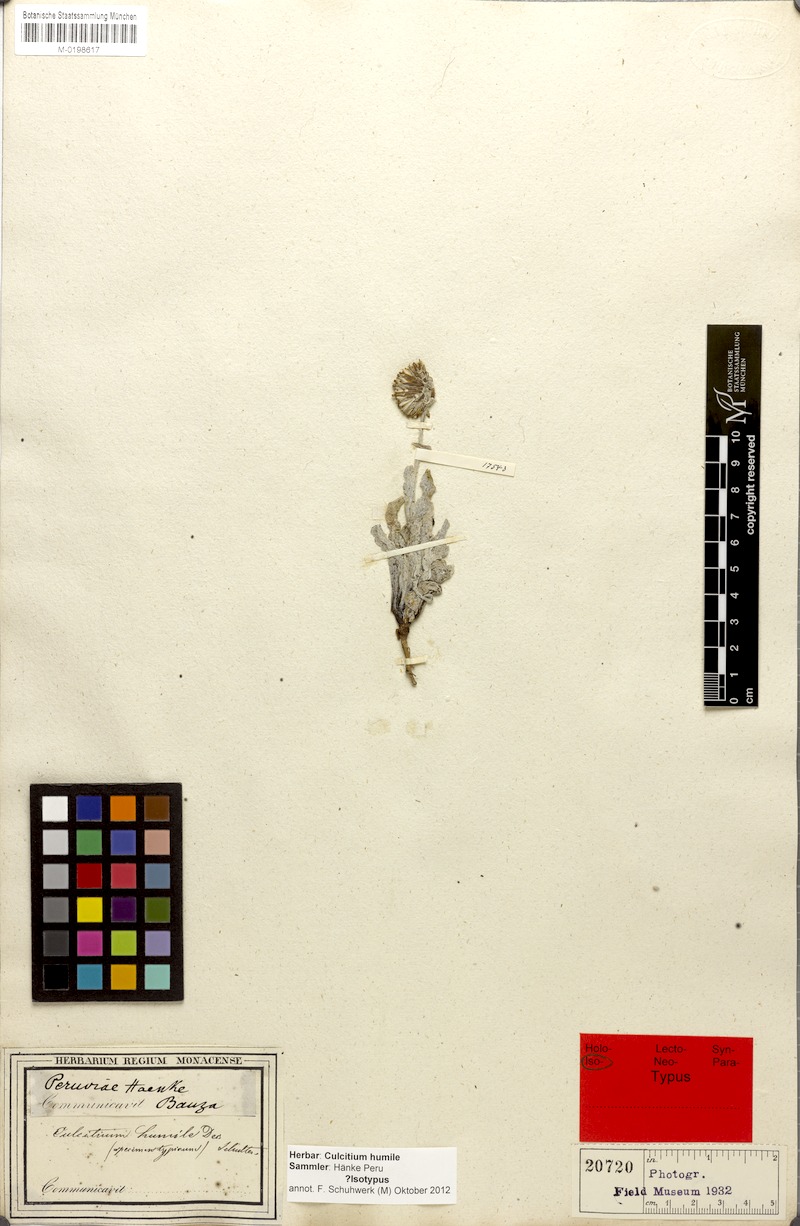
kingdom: Plantae
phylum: Tracheophyta
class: Magnoliopsida
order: Asterales
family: Asteraceae
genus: Culcitium
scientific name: Culcitium humile
